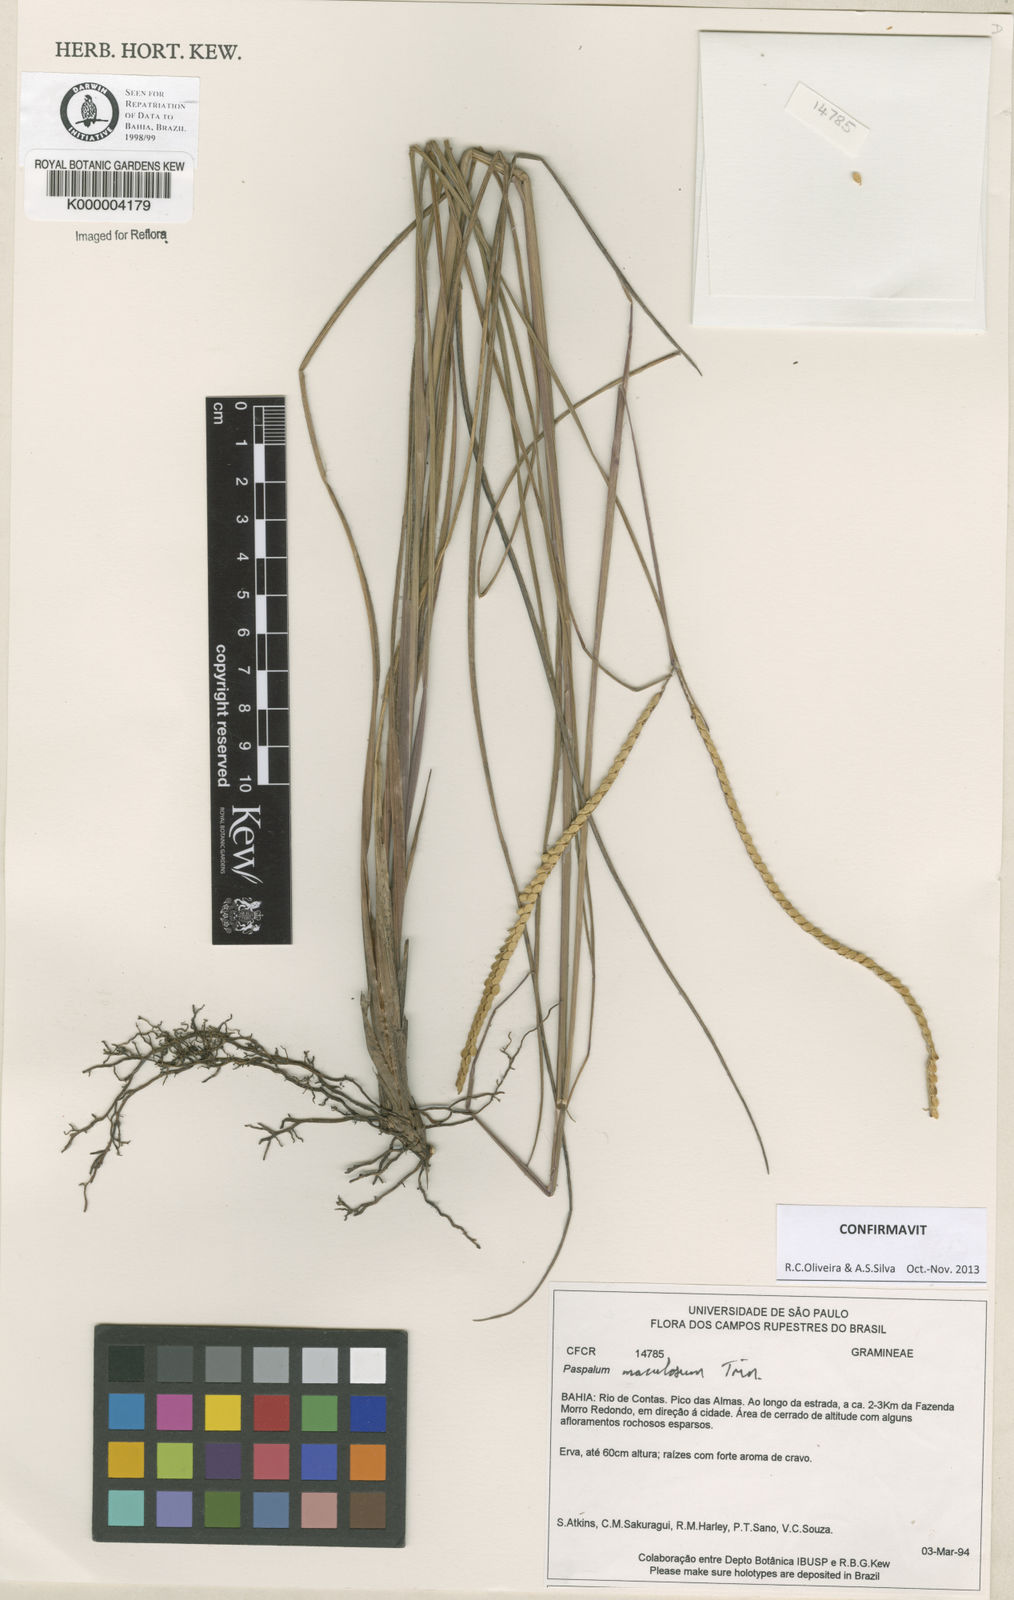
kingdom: Plantae
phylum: Tracheophyta
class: Liliopsida
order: Poales
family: Poaceae
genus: Paspalum
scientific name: Paspalum maculosum
